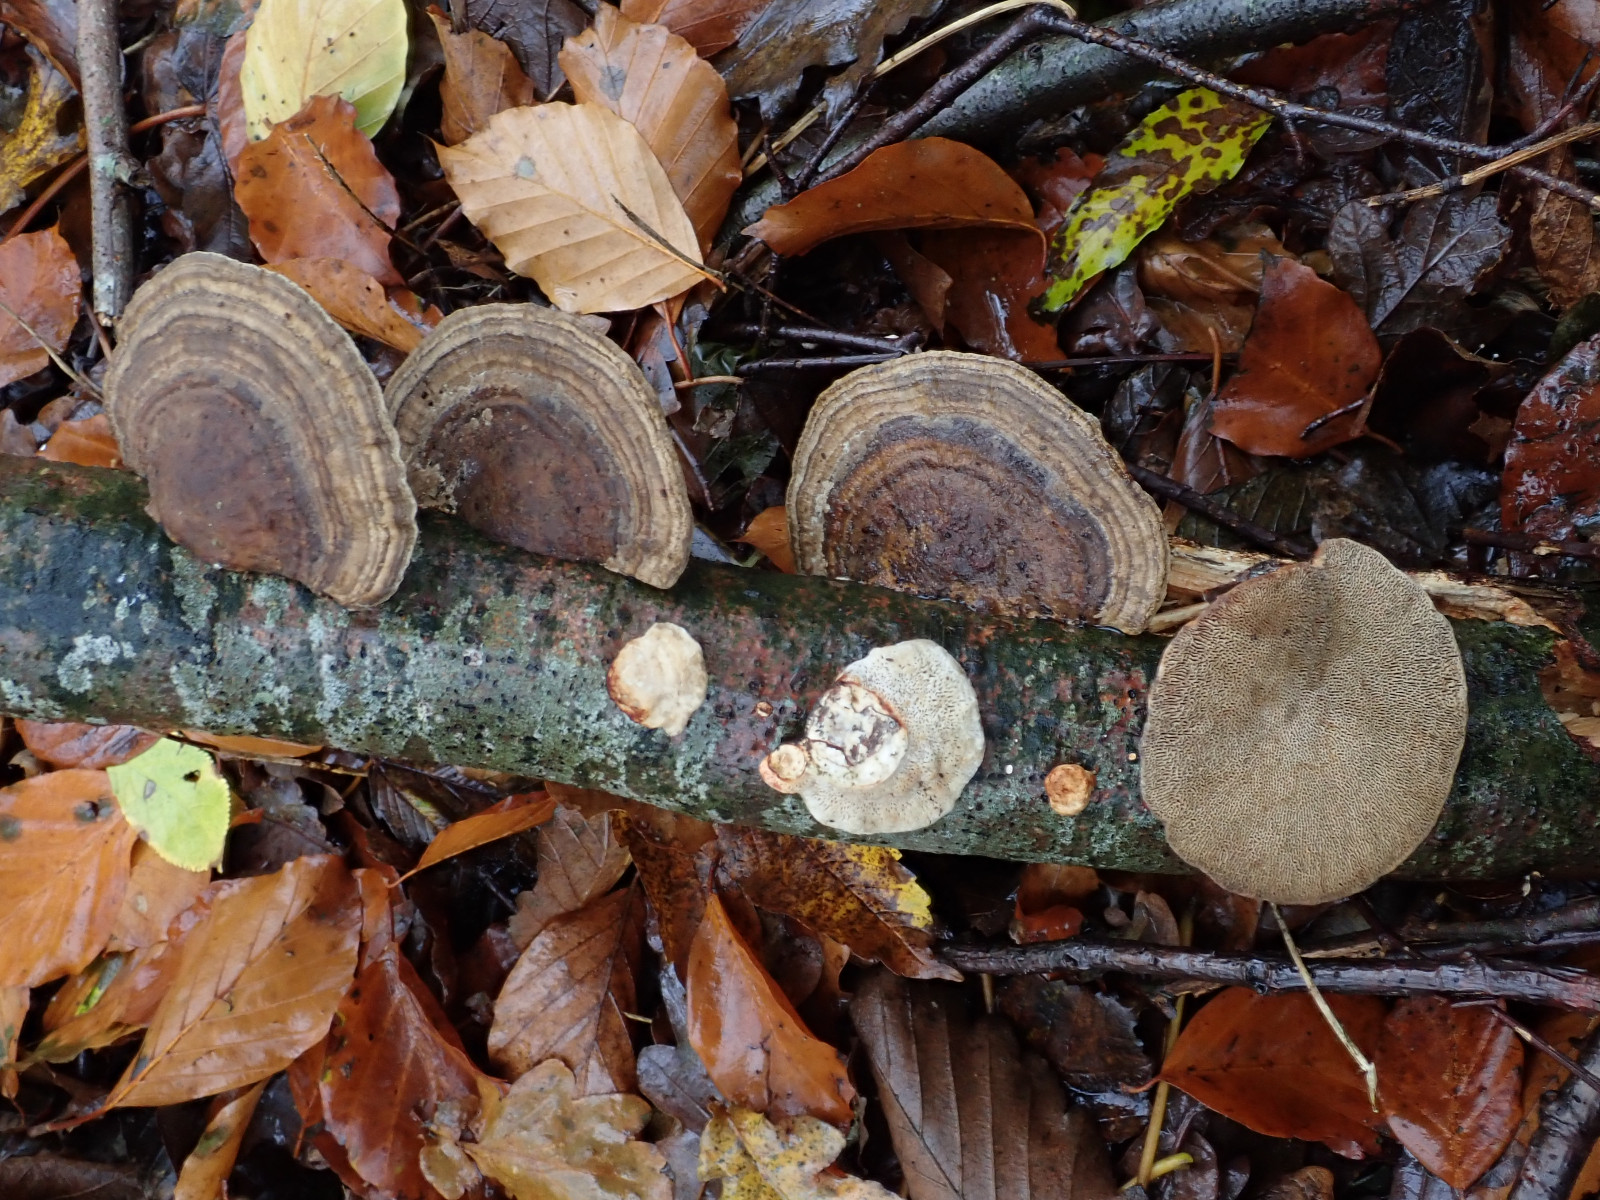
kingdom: Fungi
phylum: Basidiomycota
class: Agaricomycetes
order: Polyporales
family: Polyporaceae
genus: Daedaleopsis
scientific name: Daedaleopsis confragosa
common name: rødmende læderporesvamp
